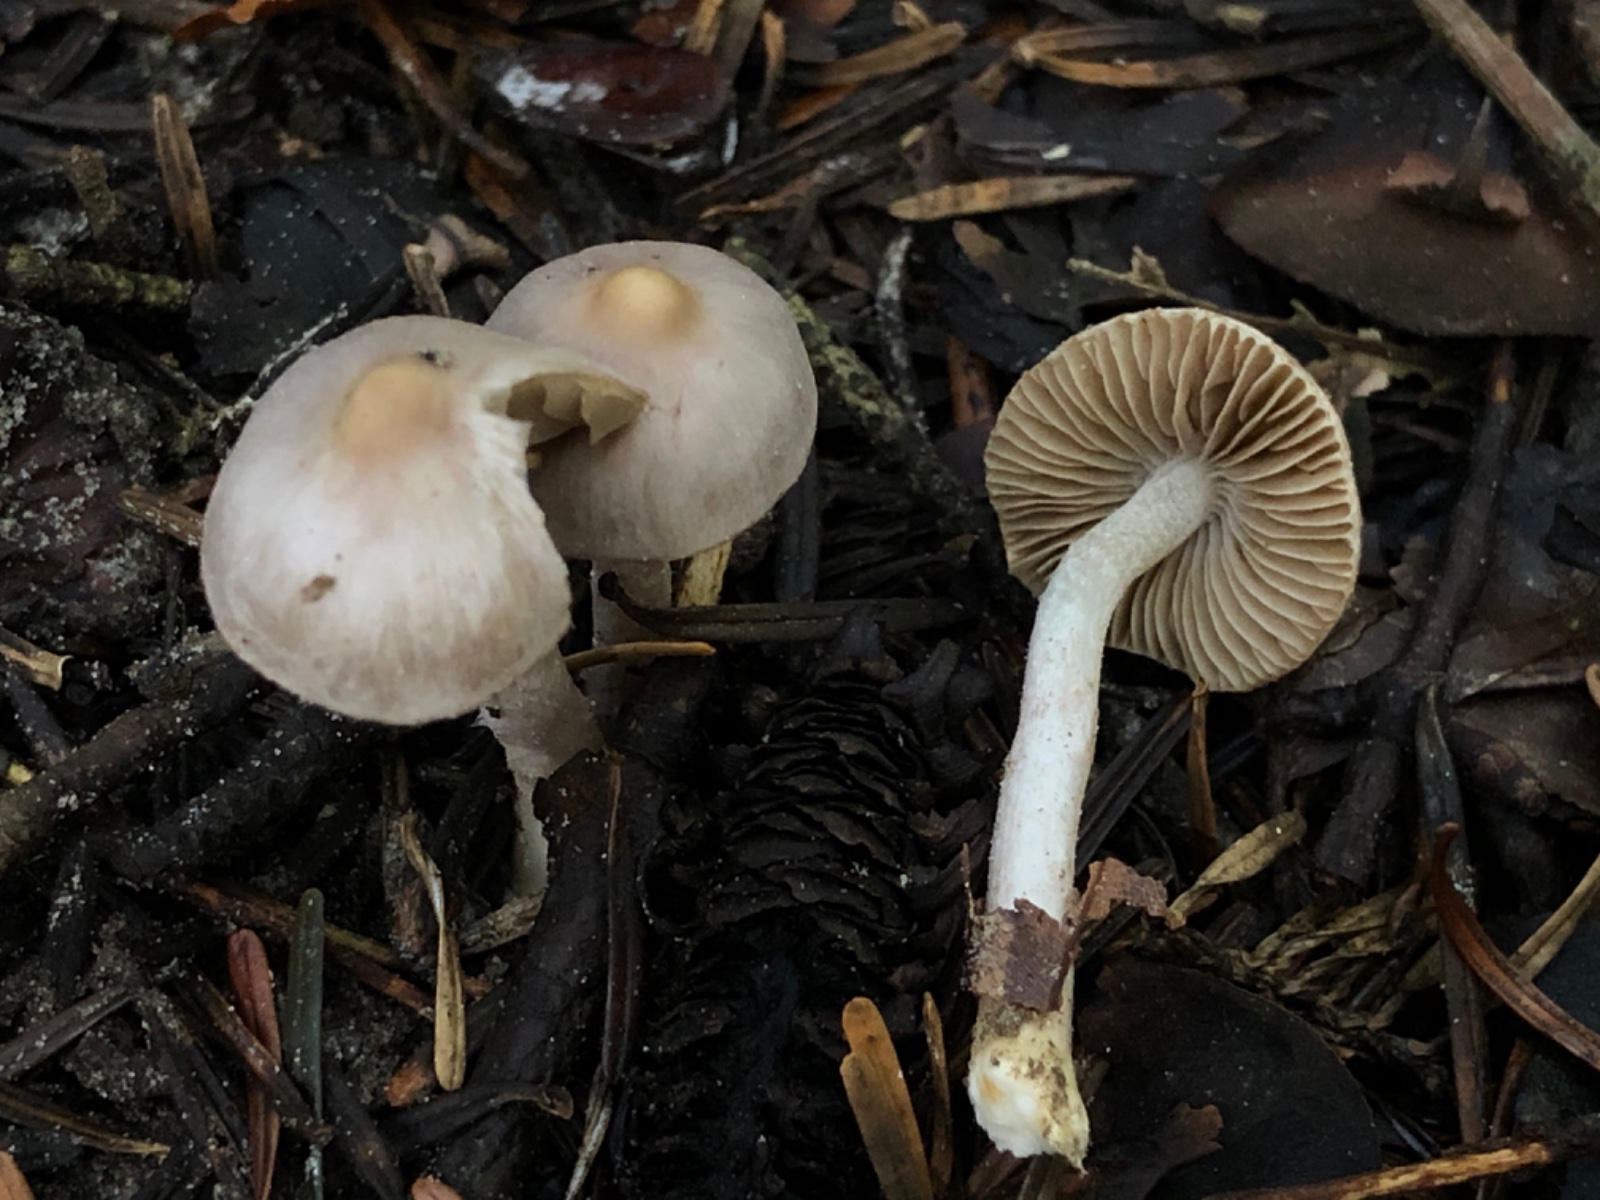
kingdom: Fungi
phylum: Basidiomycota
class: Agaricomycetes
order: Agaricales
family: Inocybaceae
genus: Inocybe
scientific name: Inocybe geophylla
